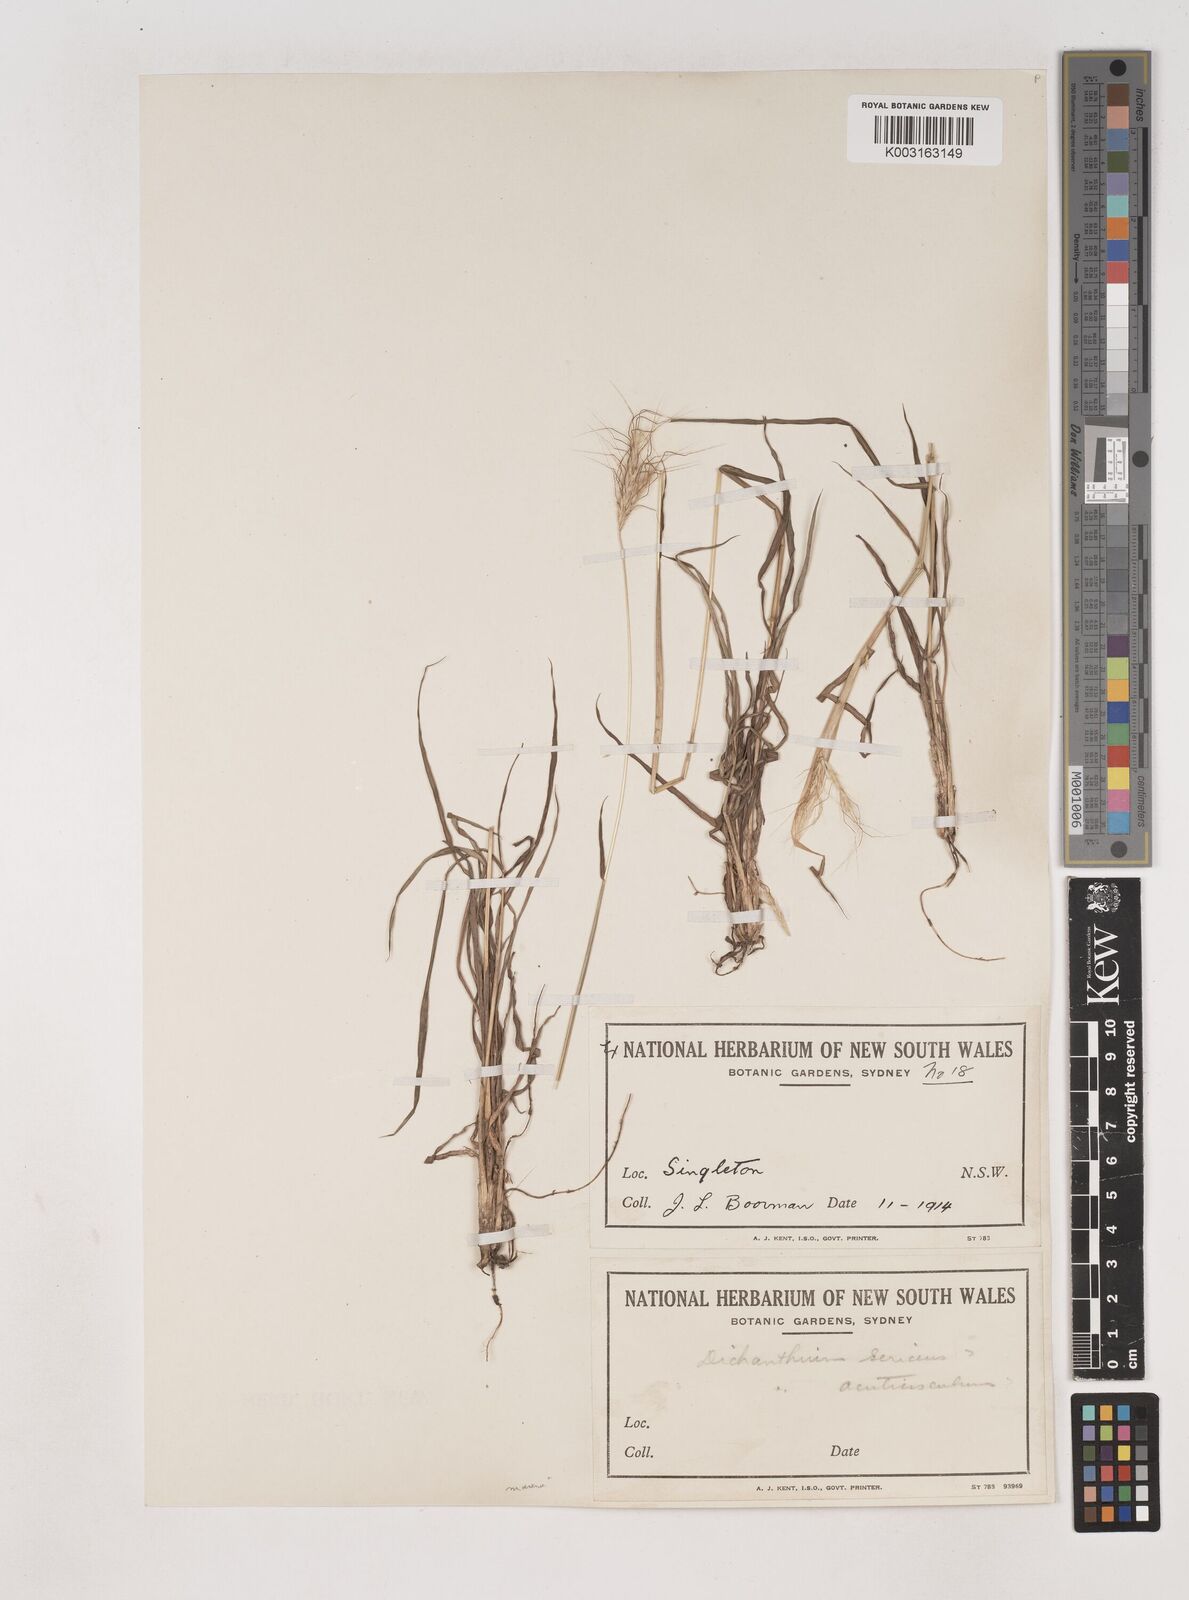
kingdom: Plantae
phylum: Tracheophyta
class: Liliopsida
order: Poales
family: Poaceae
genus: Dichanthium
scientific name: Dichanthium sericeum
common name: Silky bluestem
